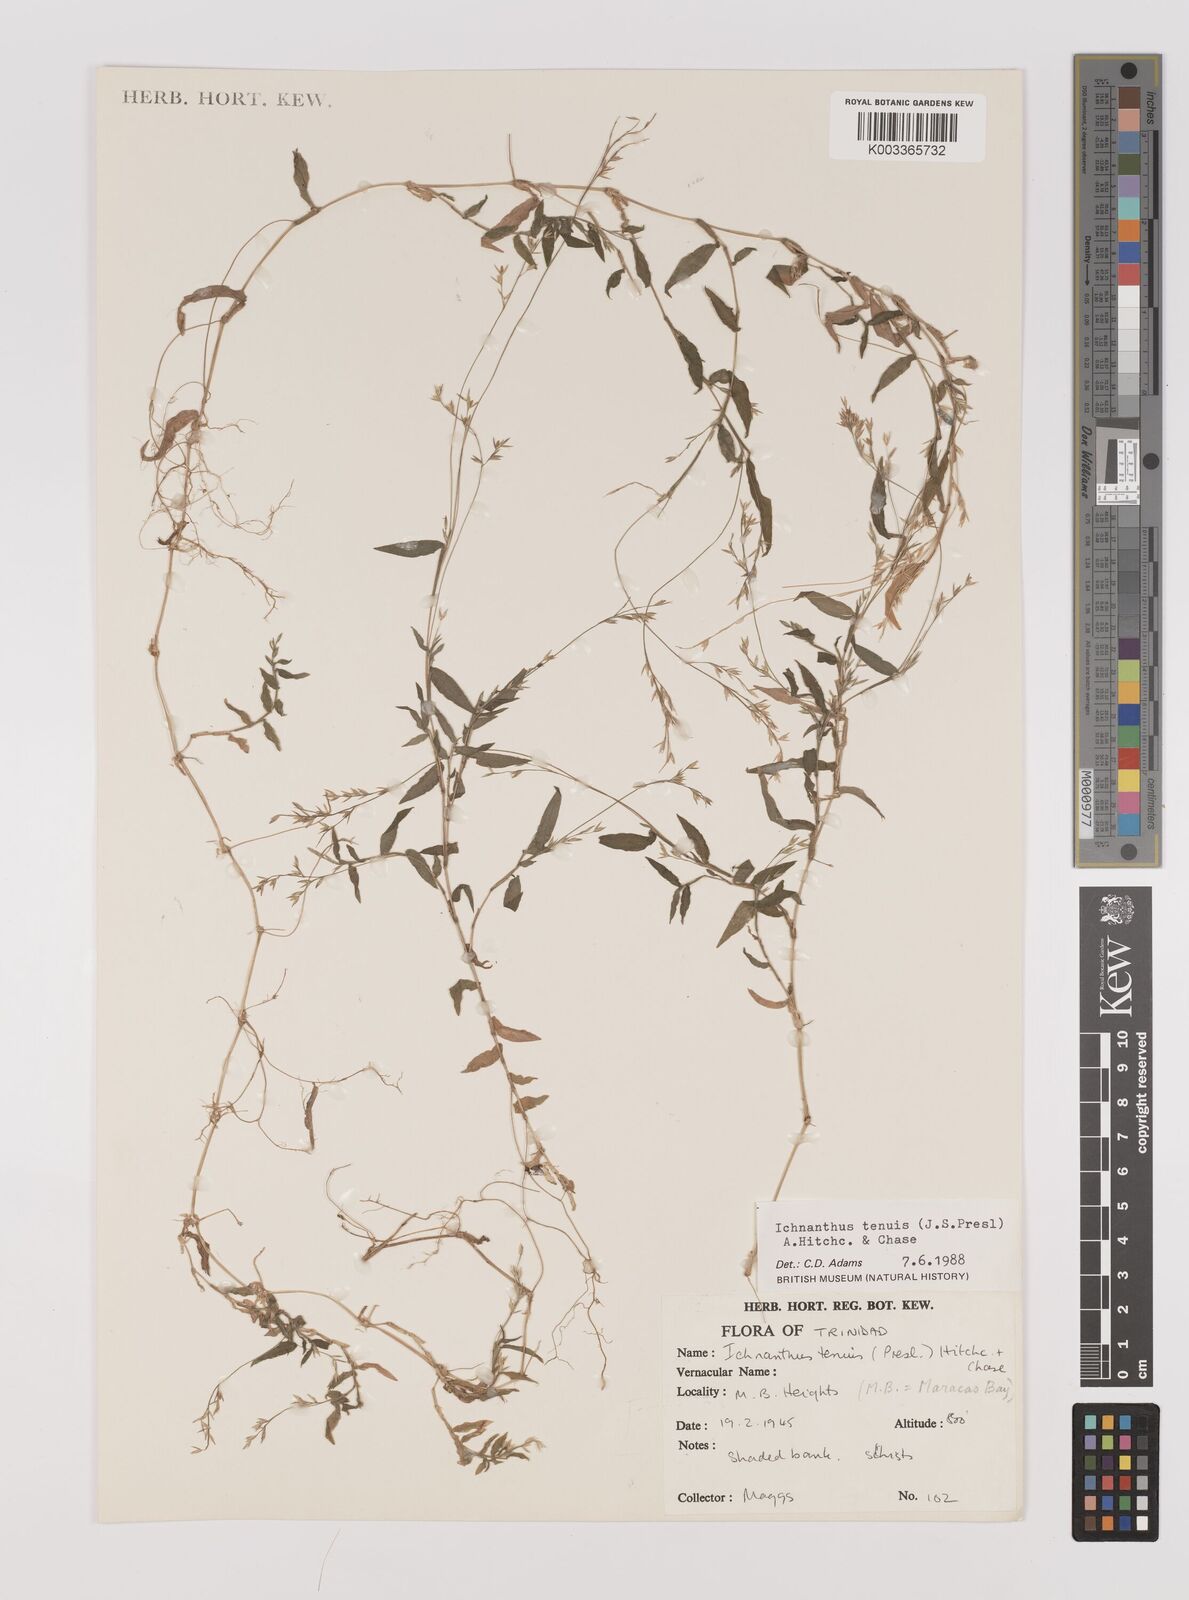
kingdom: Plantae
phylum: Tracheophyta
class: Liliopsida
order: Poales
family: Poaceae
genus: Ichnanthus
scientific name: Ichnanthus tenuis
